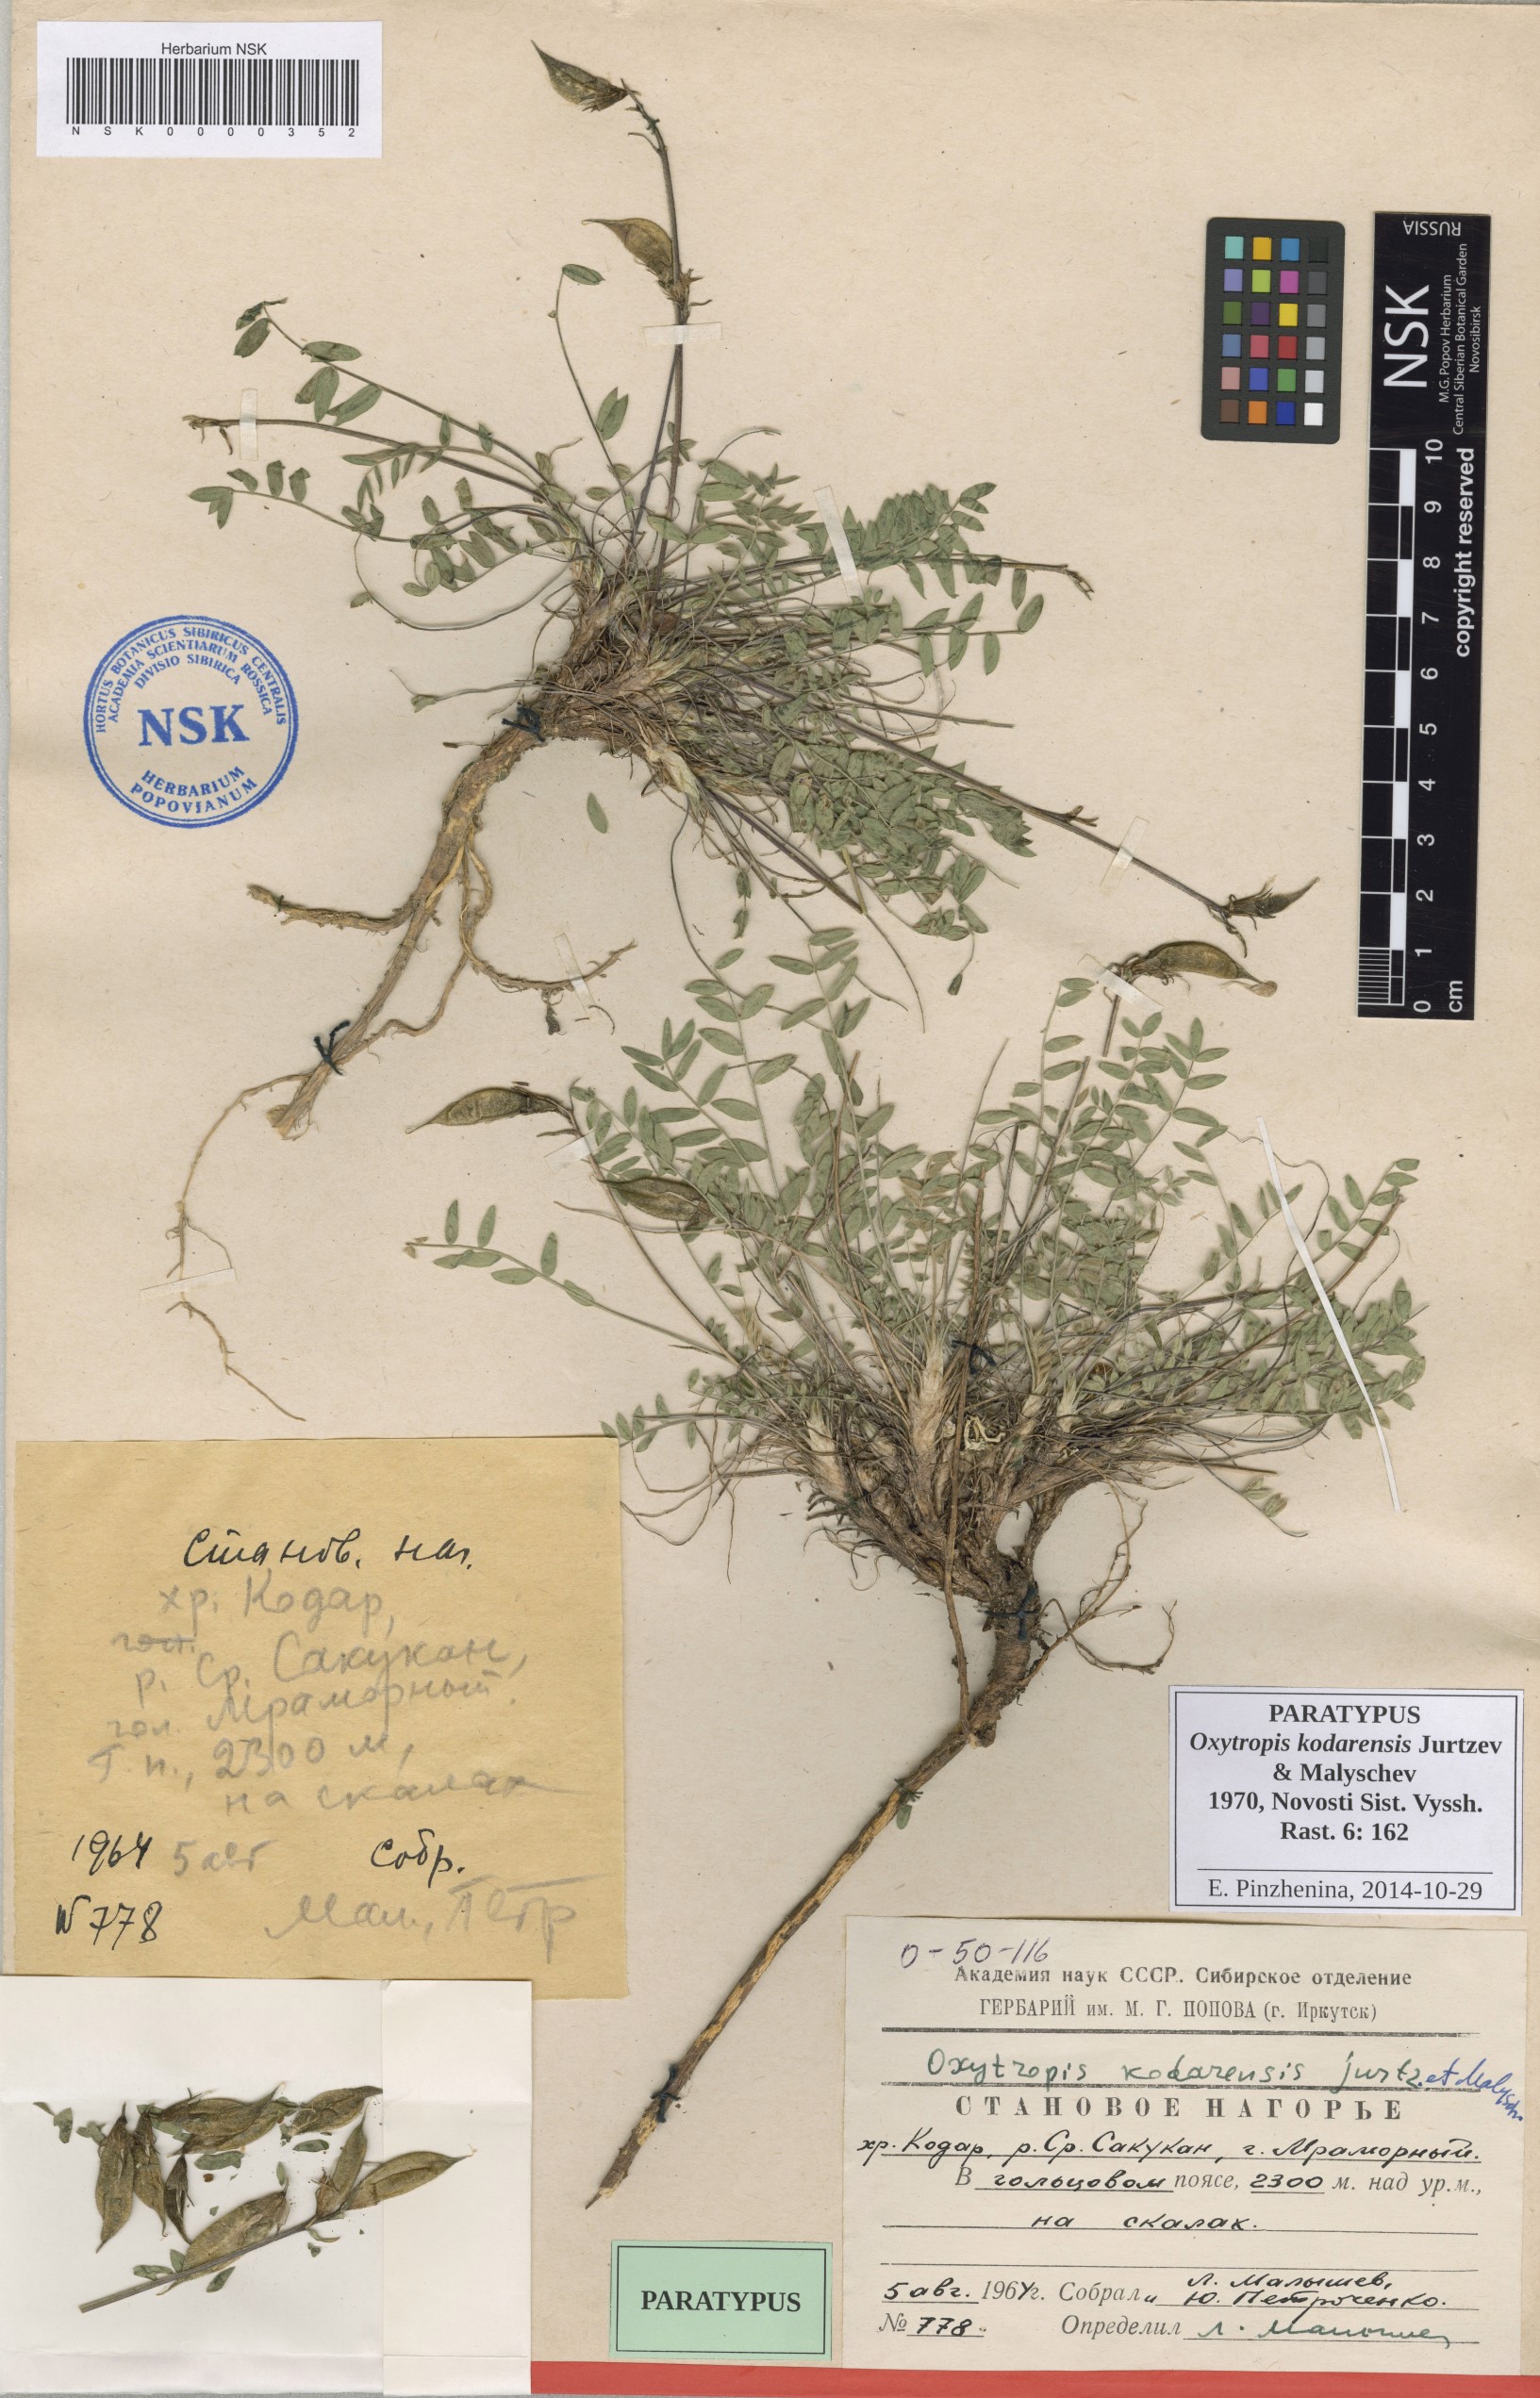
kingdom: Plantae
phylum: Tracheophyta
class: Magnoliopsida
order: Fabales
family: Fabaceae
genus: Oxytropis
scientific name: Oxytropis kodarensis
